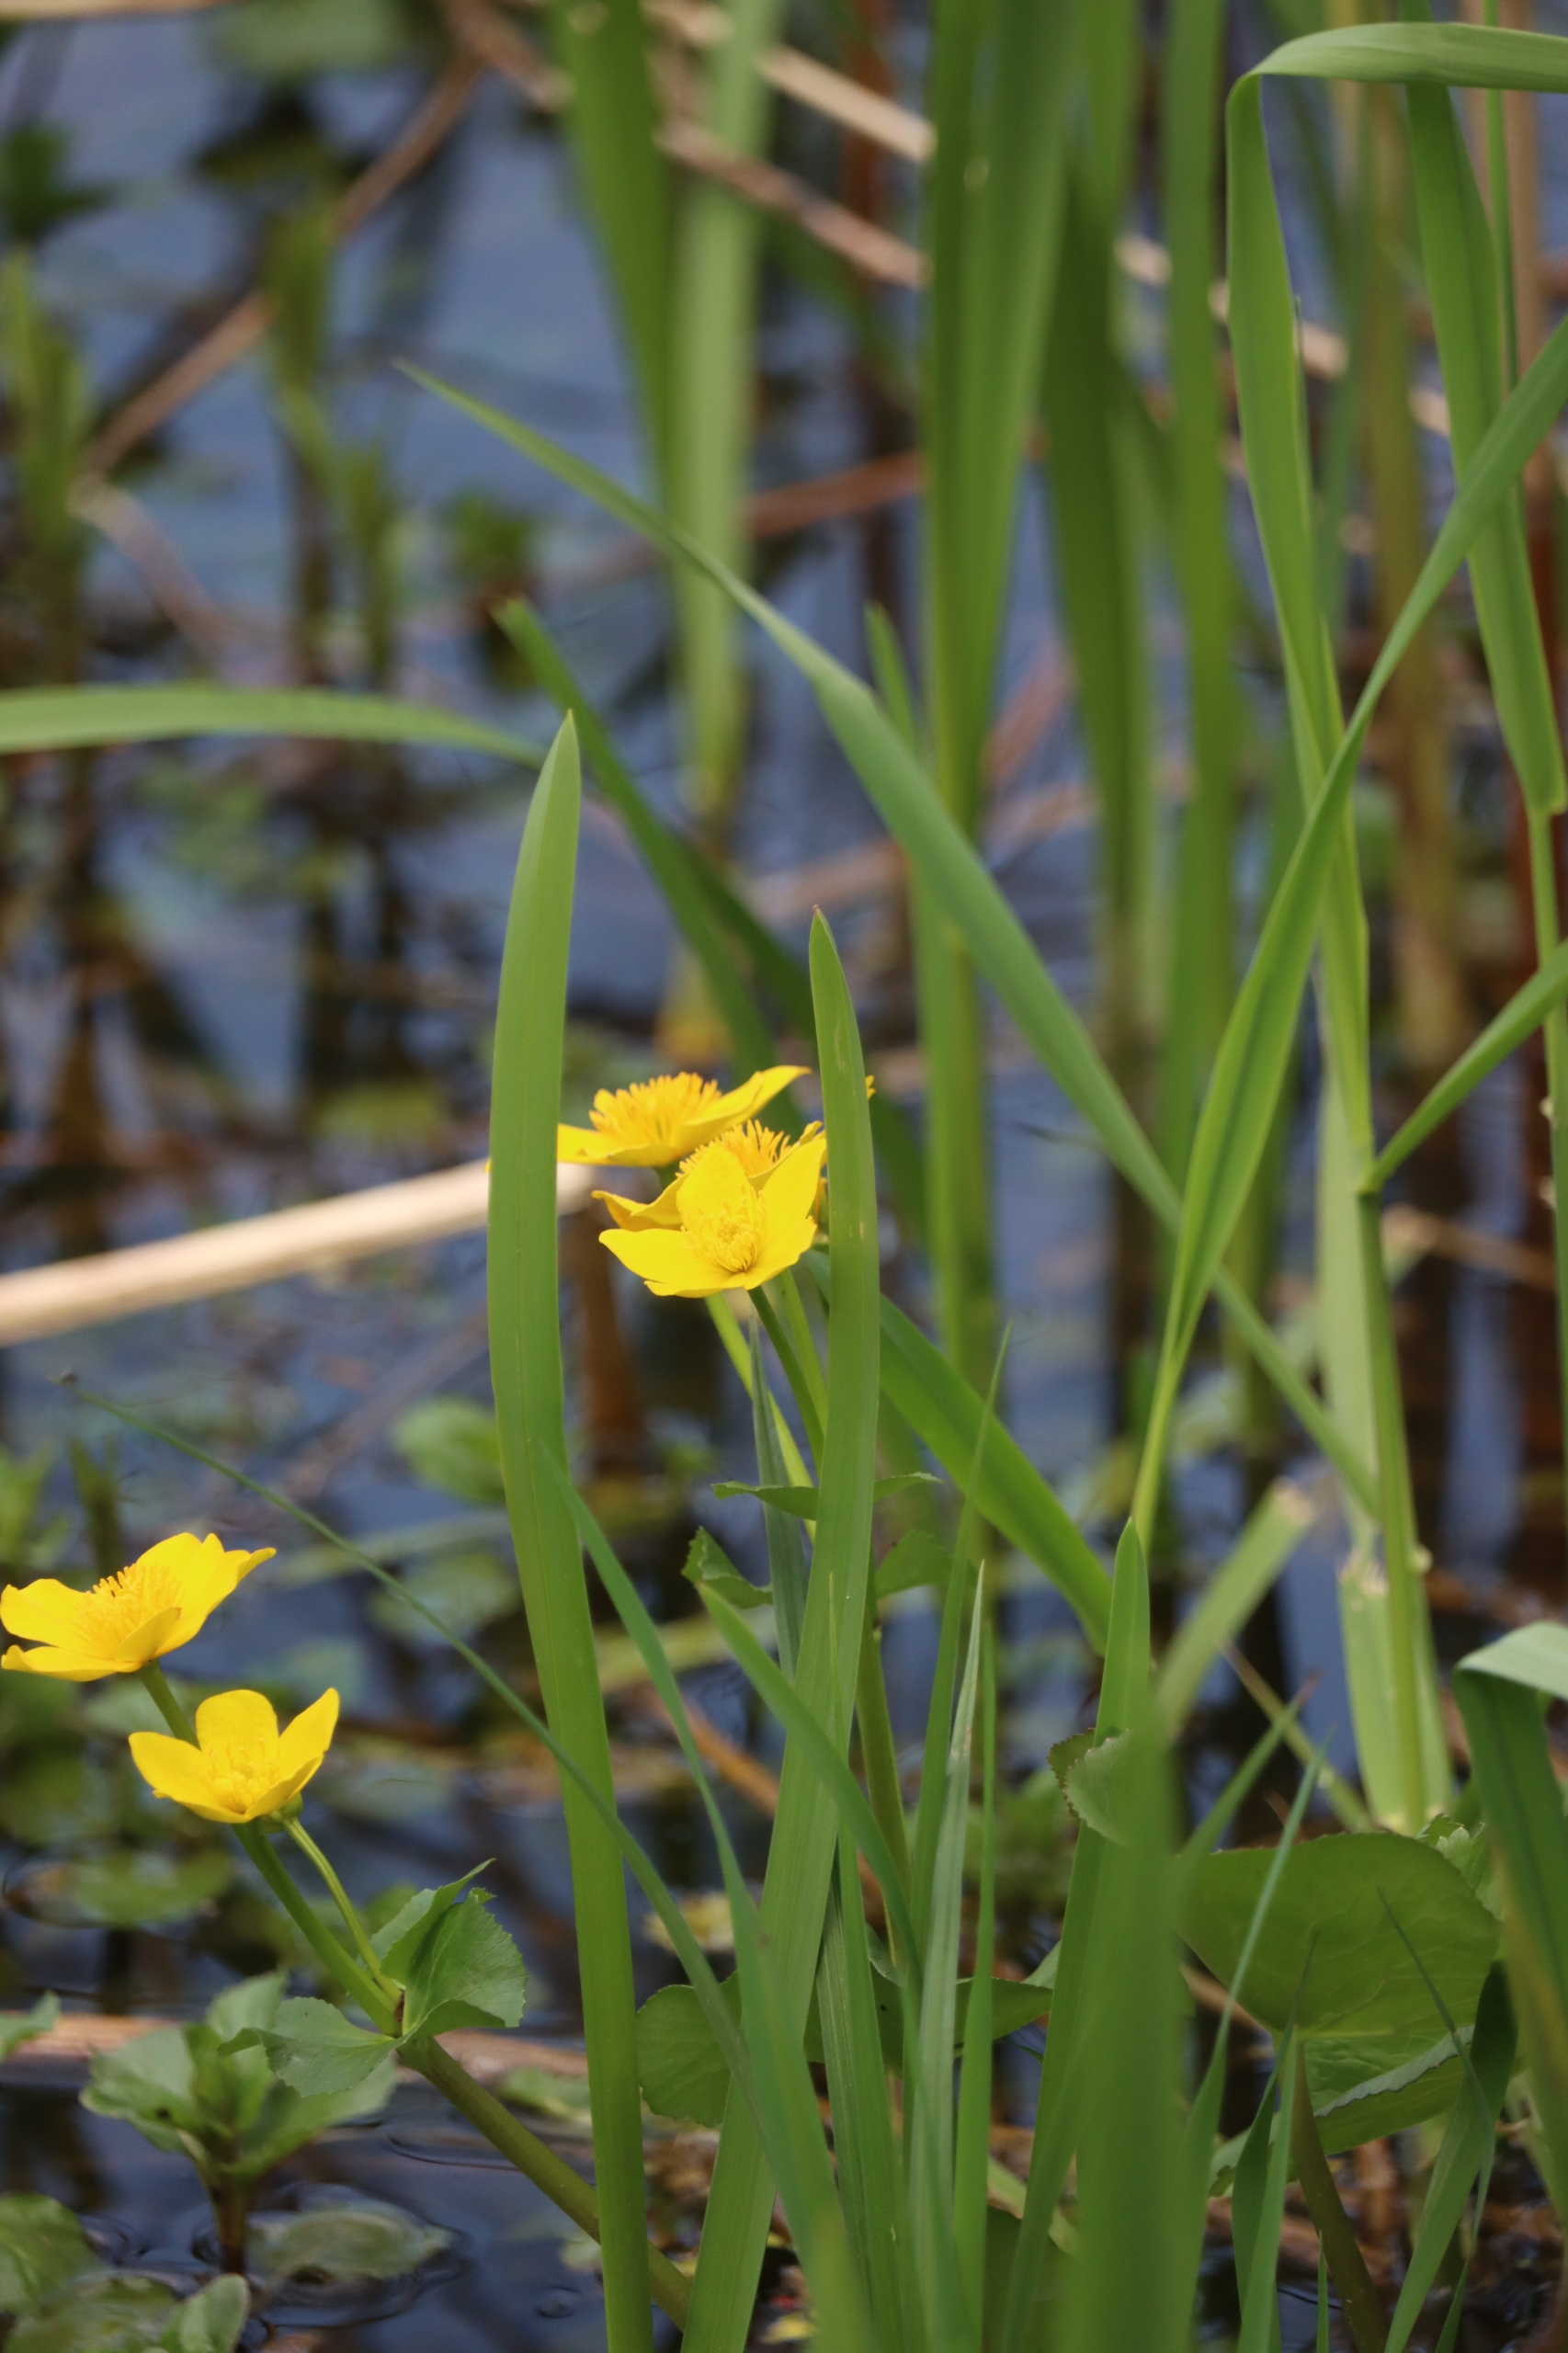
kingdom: Plantae
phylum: Tracheophyta
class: Magnoliopsida
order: Ranunculales
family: Ranunculaceae
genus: Caltha
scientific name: Caltha palustris
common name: Eng-kabbeleje
